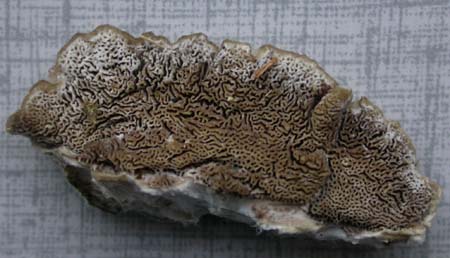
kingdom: Fungi
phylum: Basidiomycota
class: Agaricomycetes
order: Polyporales
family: Cerrenaceae
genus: Cerrena
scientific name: Cerrena unicolor
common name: ensfarvet læderporesvamp
